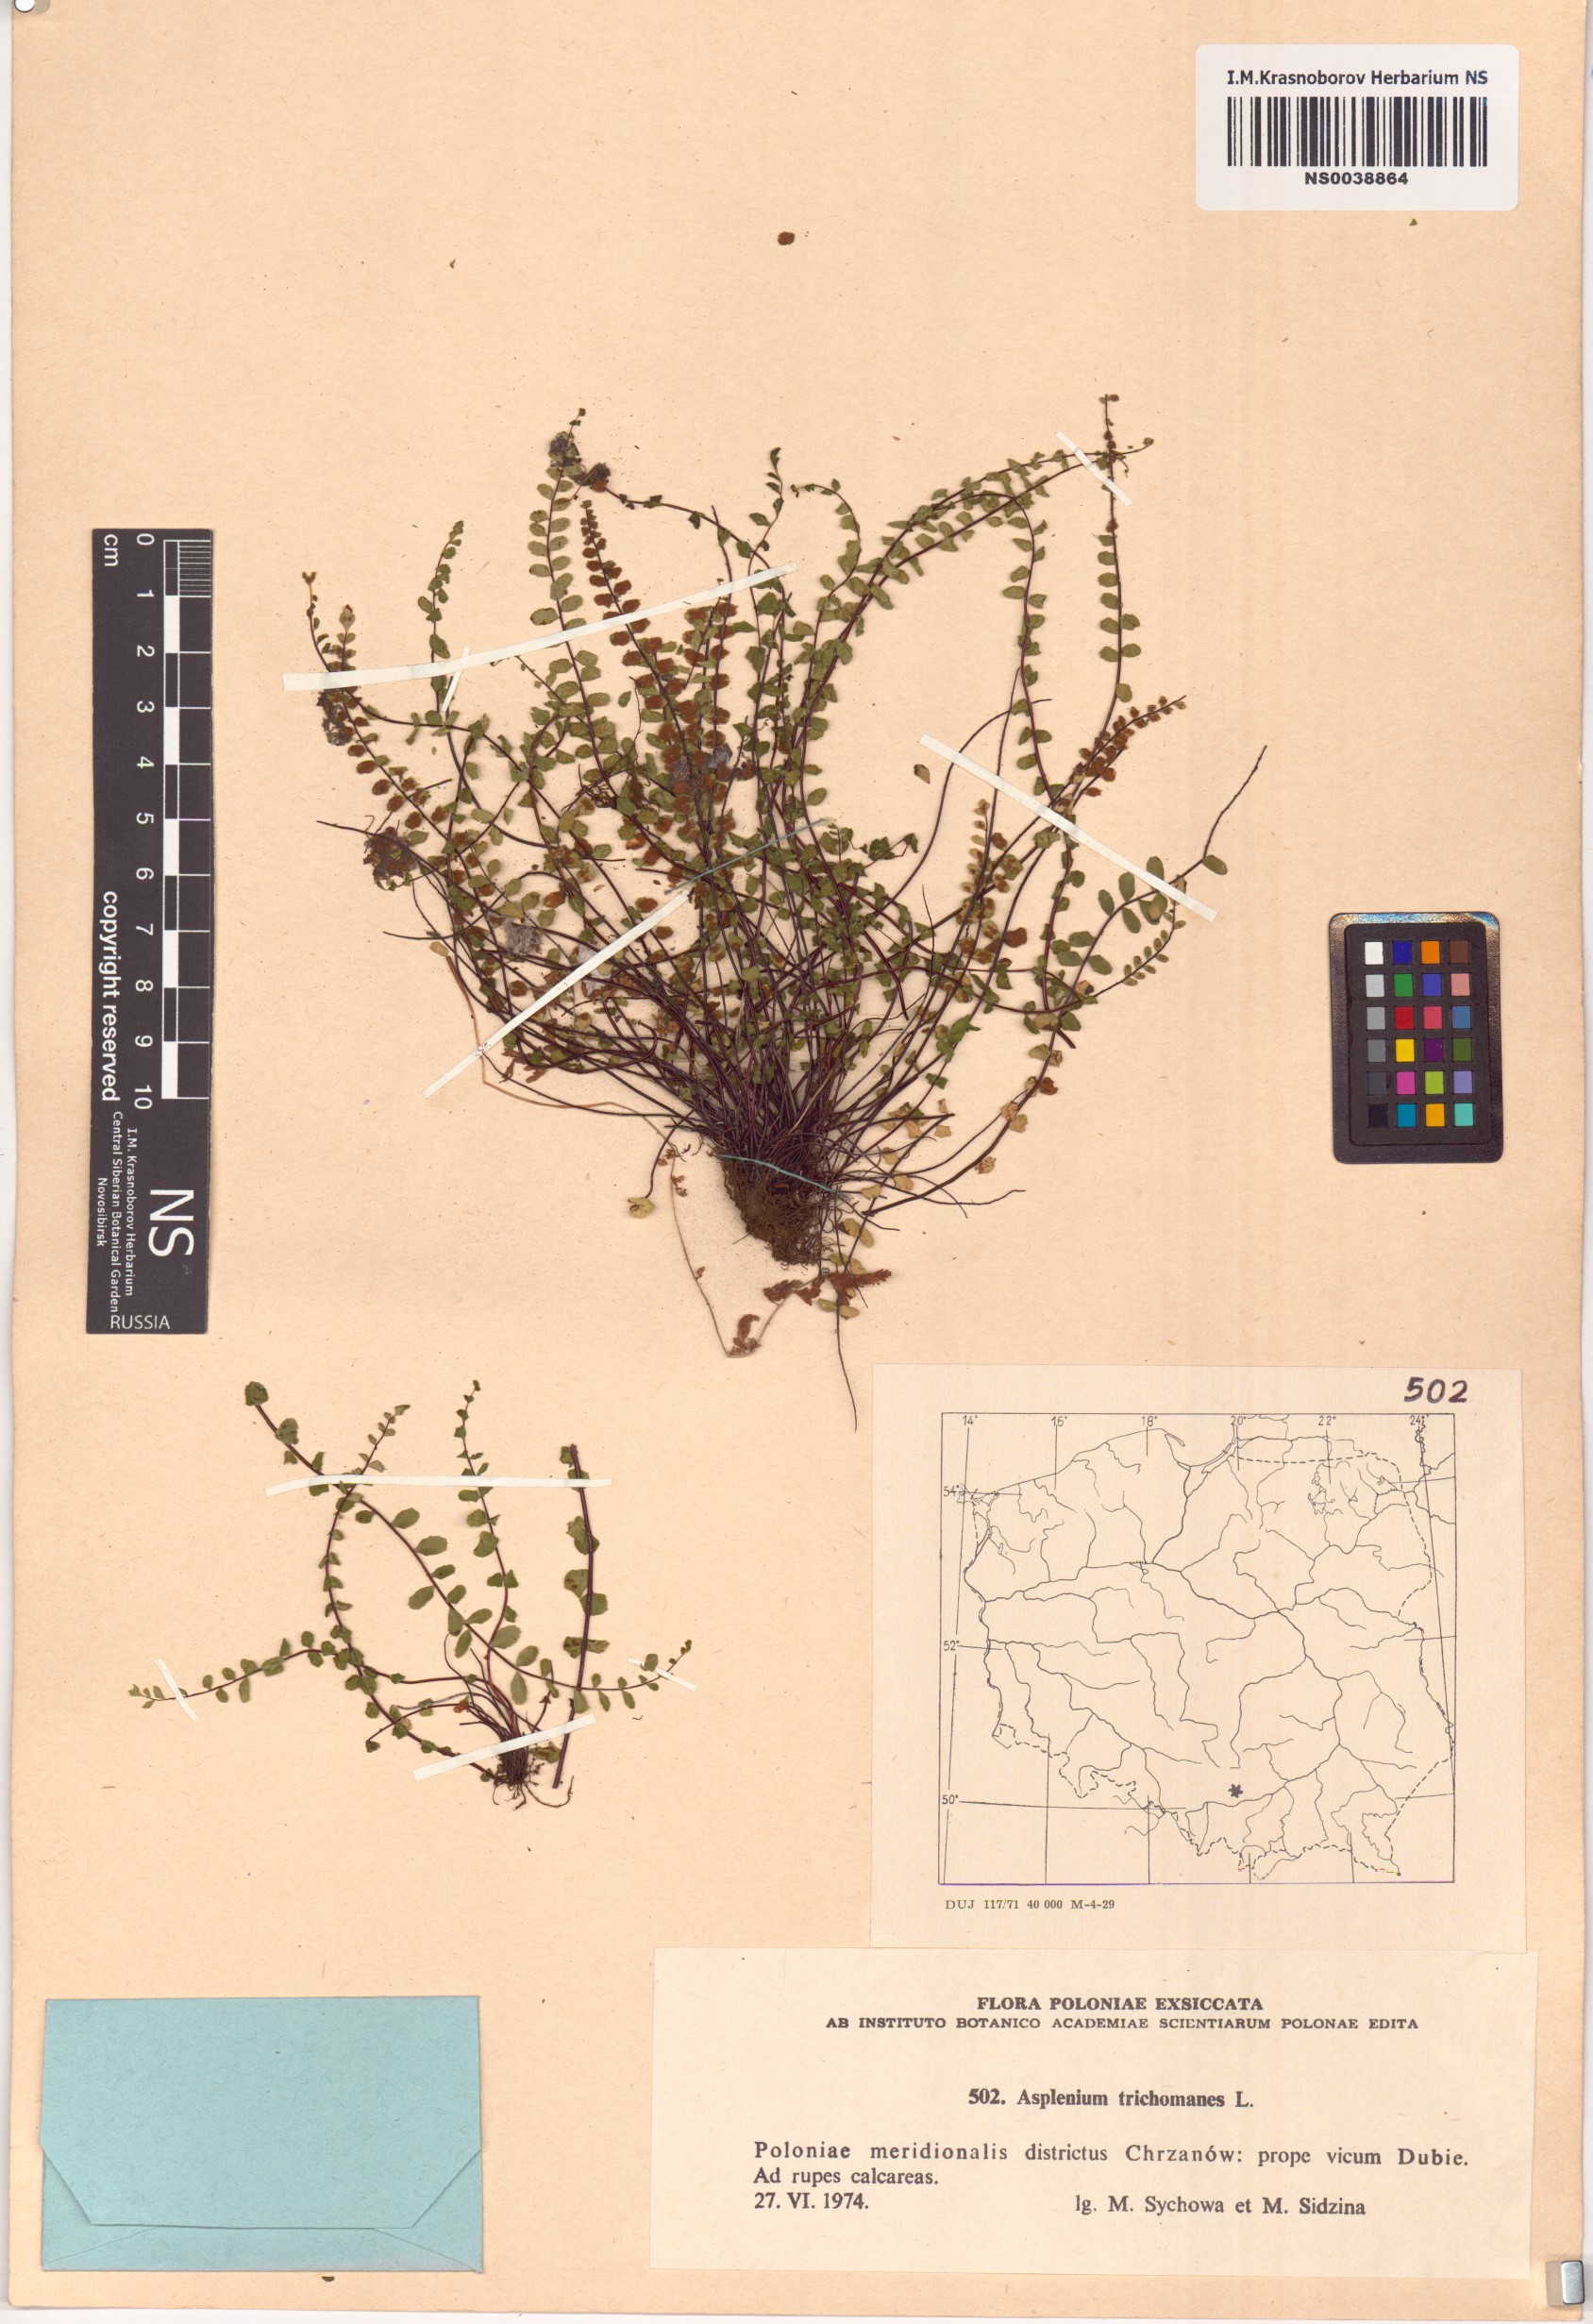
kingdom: Plantae
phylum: Tracheophyta
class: Polypodiopsida
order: Polypodiales
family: Aspleniaceae
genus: Asplenium
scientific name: Asplenium trichomanes
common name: Maidenhair spleenwort
